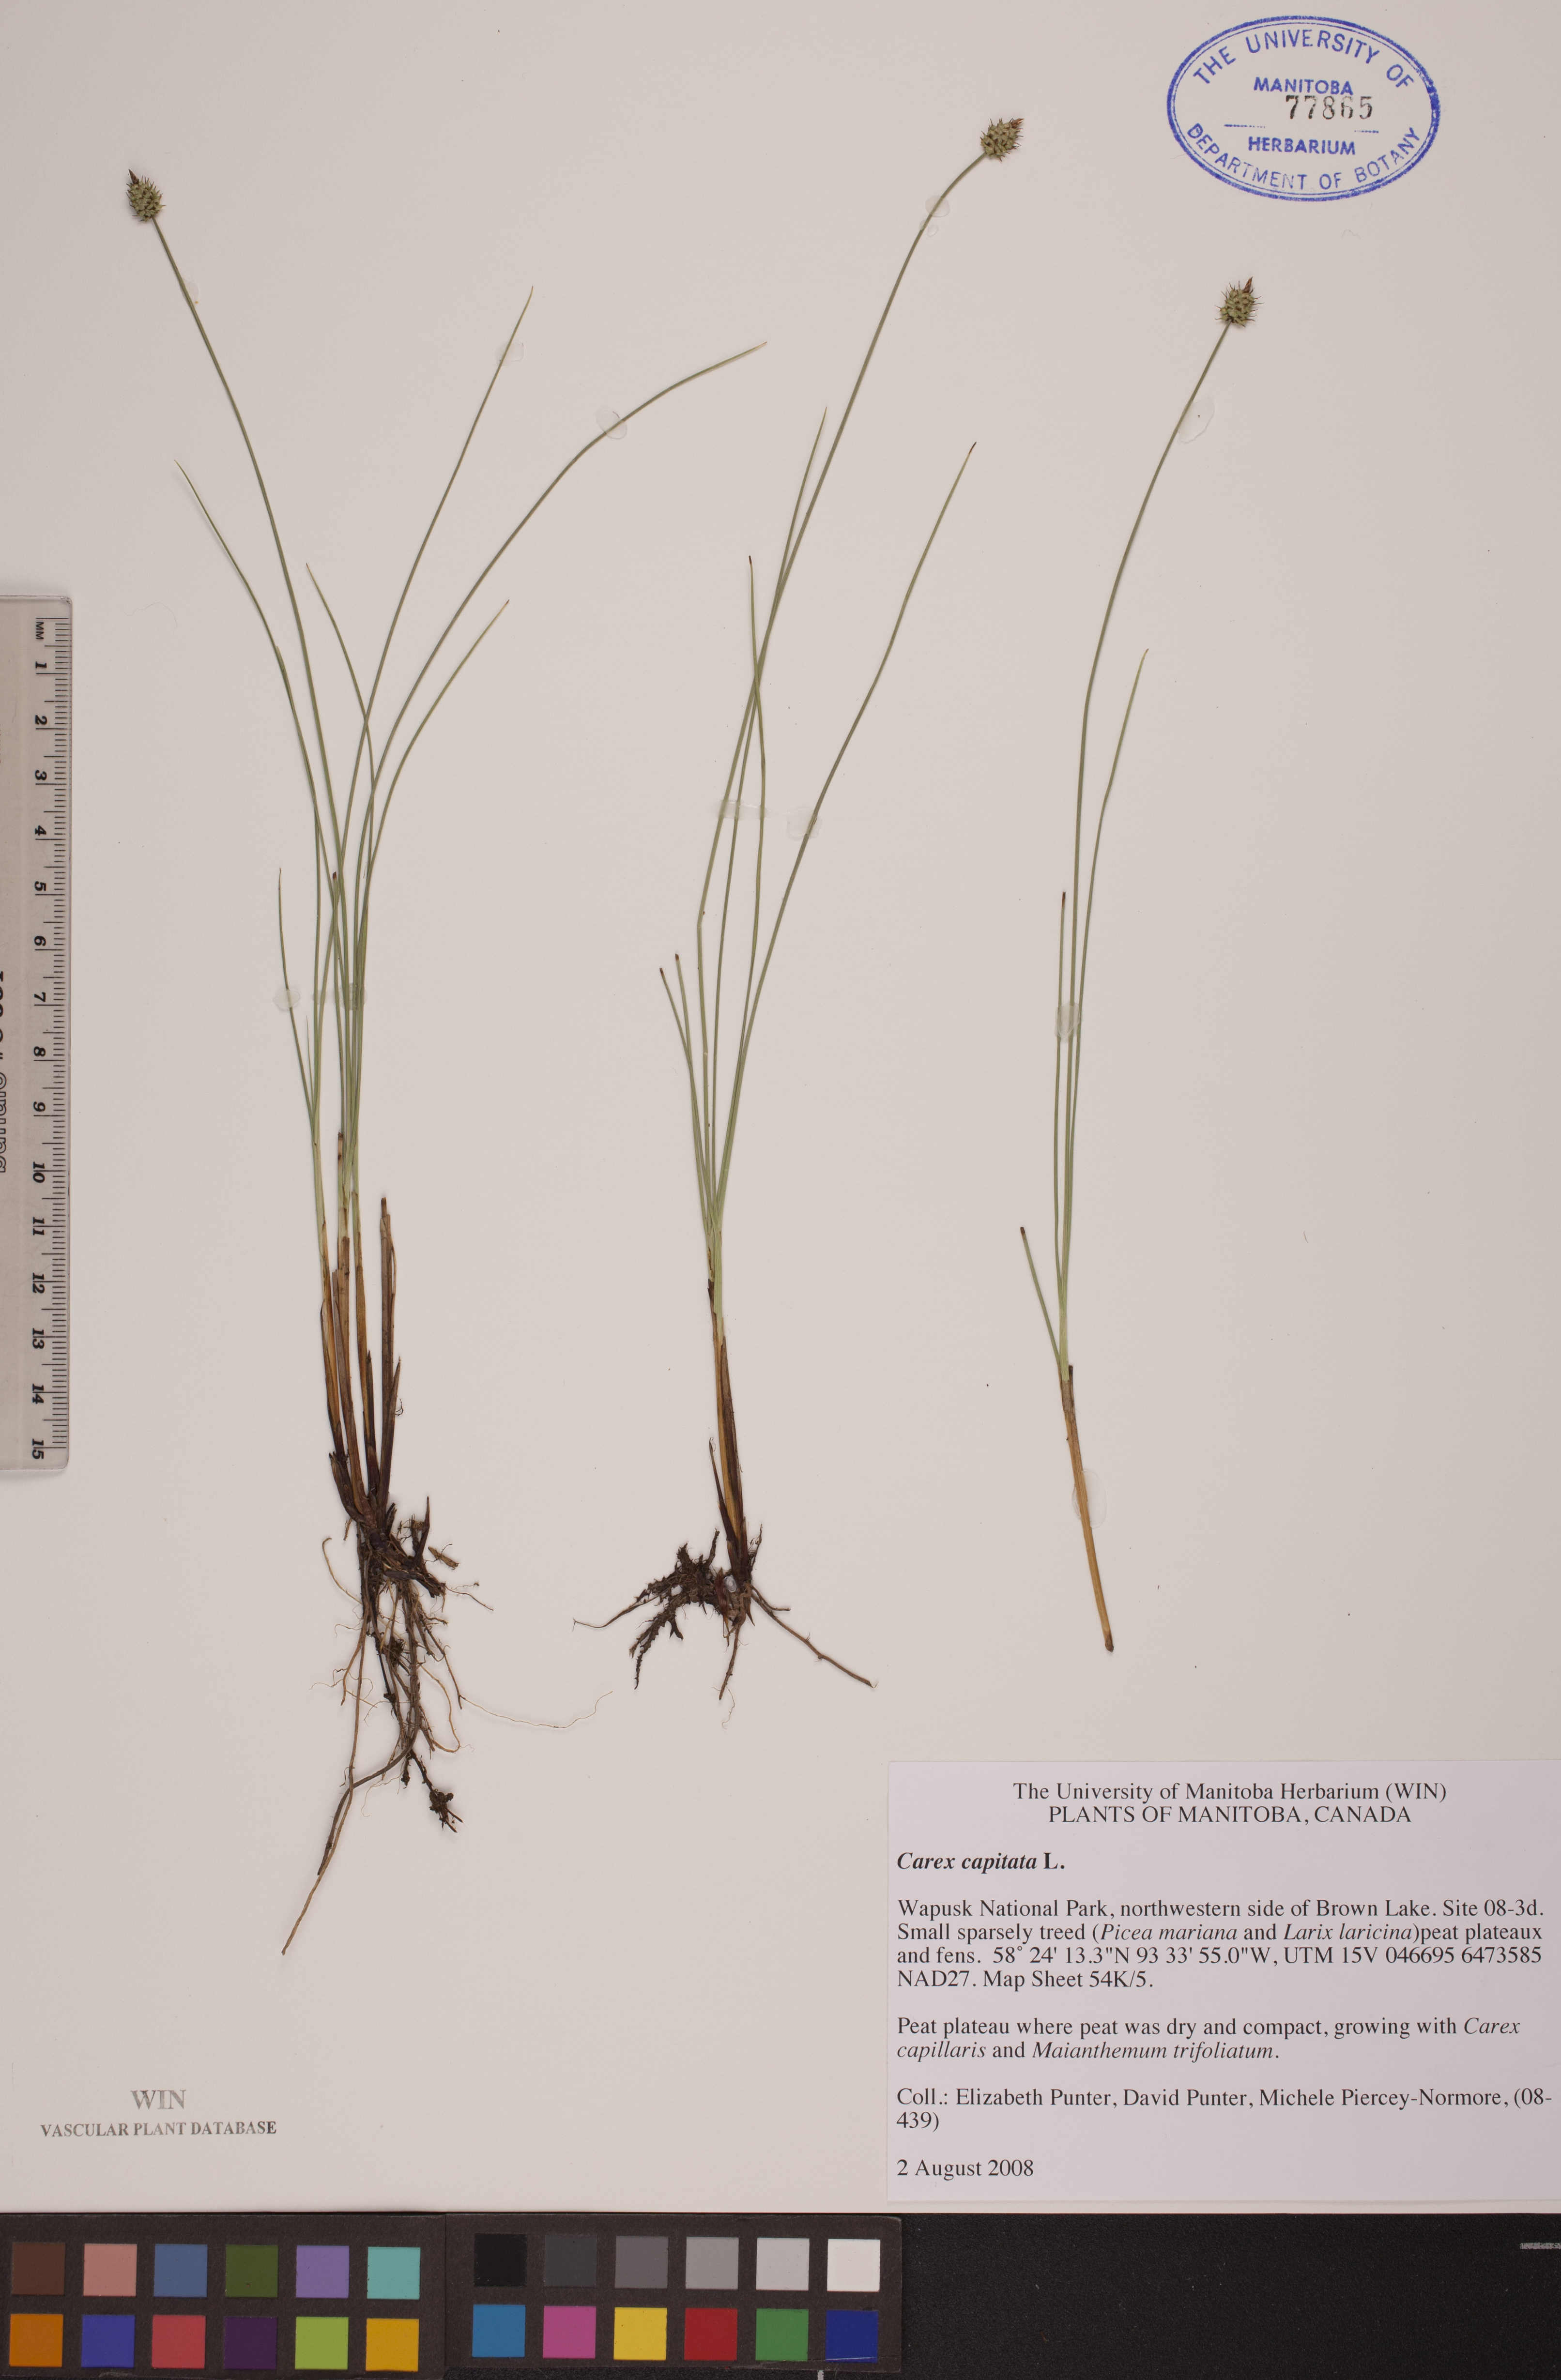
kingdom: Plantae
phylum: Tracheophyta
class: Liliopsida
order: Poales
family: Cyperaceae
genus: Carex
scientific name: Carex capitata
